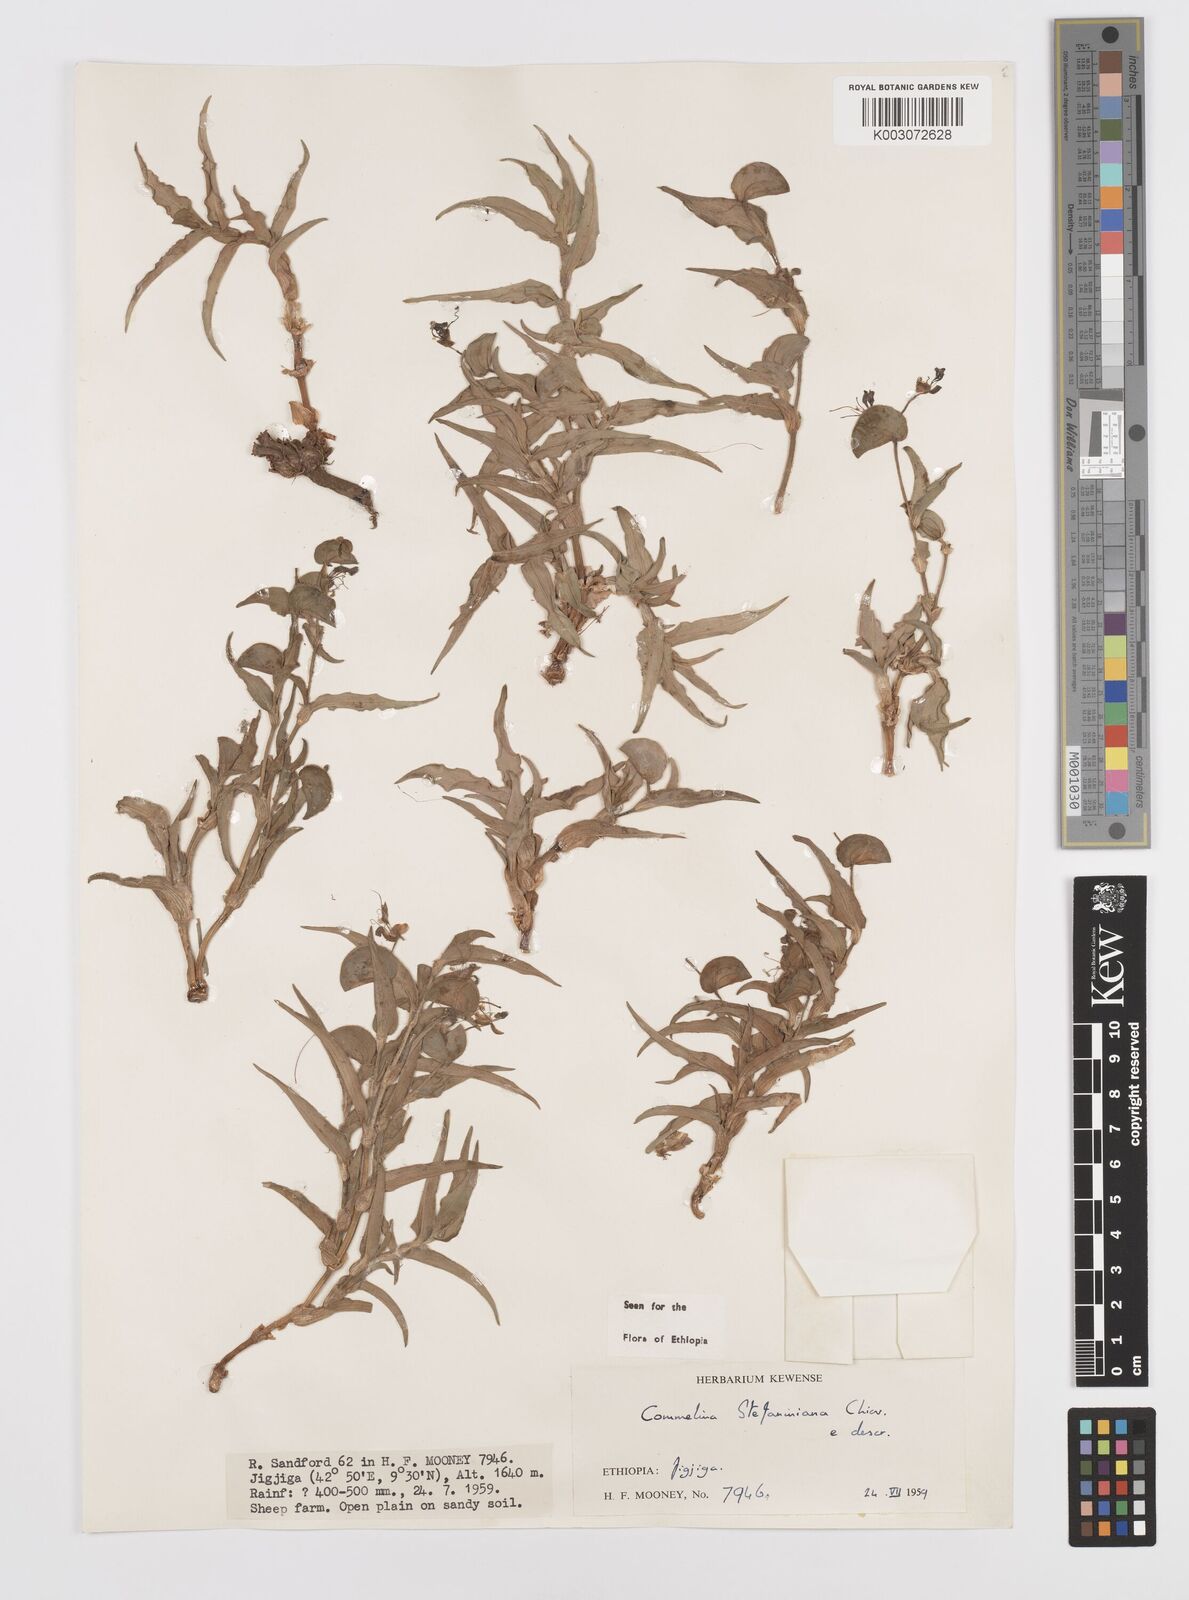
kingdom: Plantae
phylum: Tracheophyta
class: Liliopsida
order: Commelinales
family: Commelinaceae
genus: Commelina
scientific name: Commelina stefaniniana
